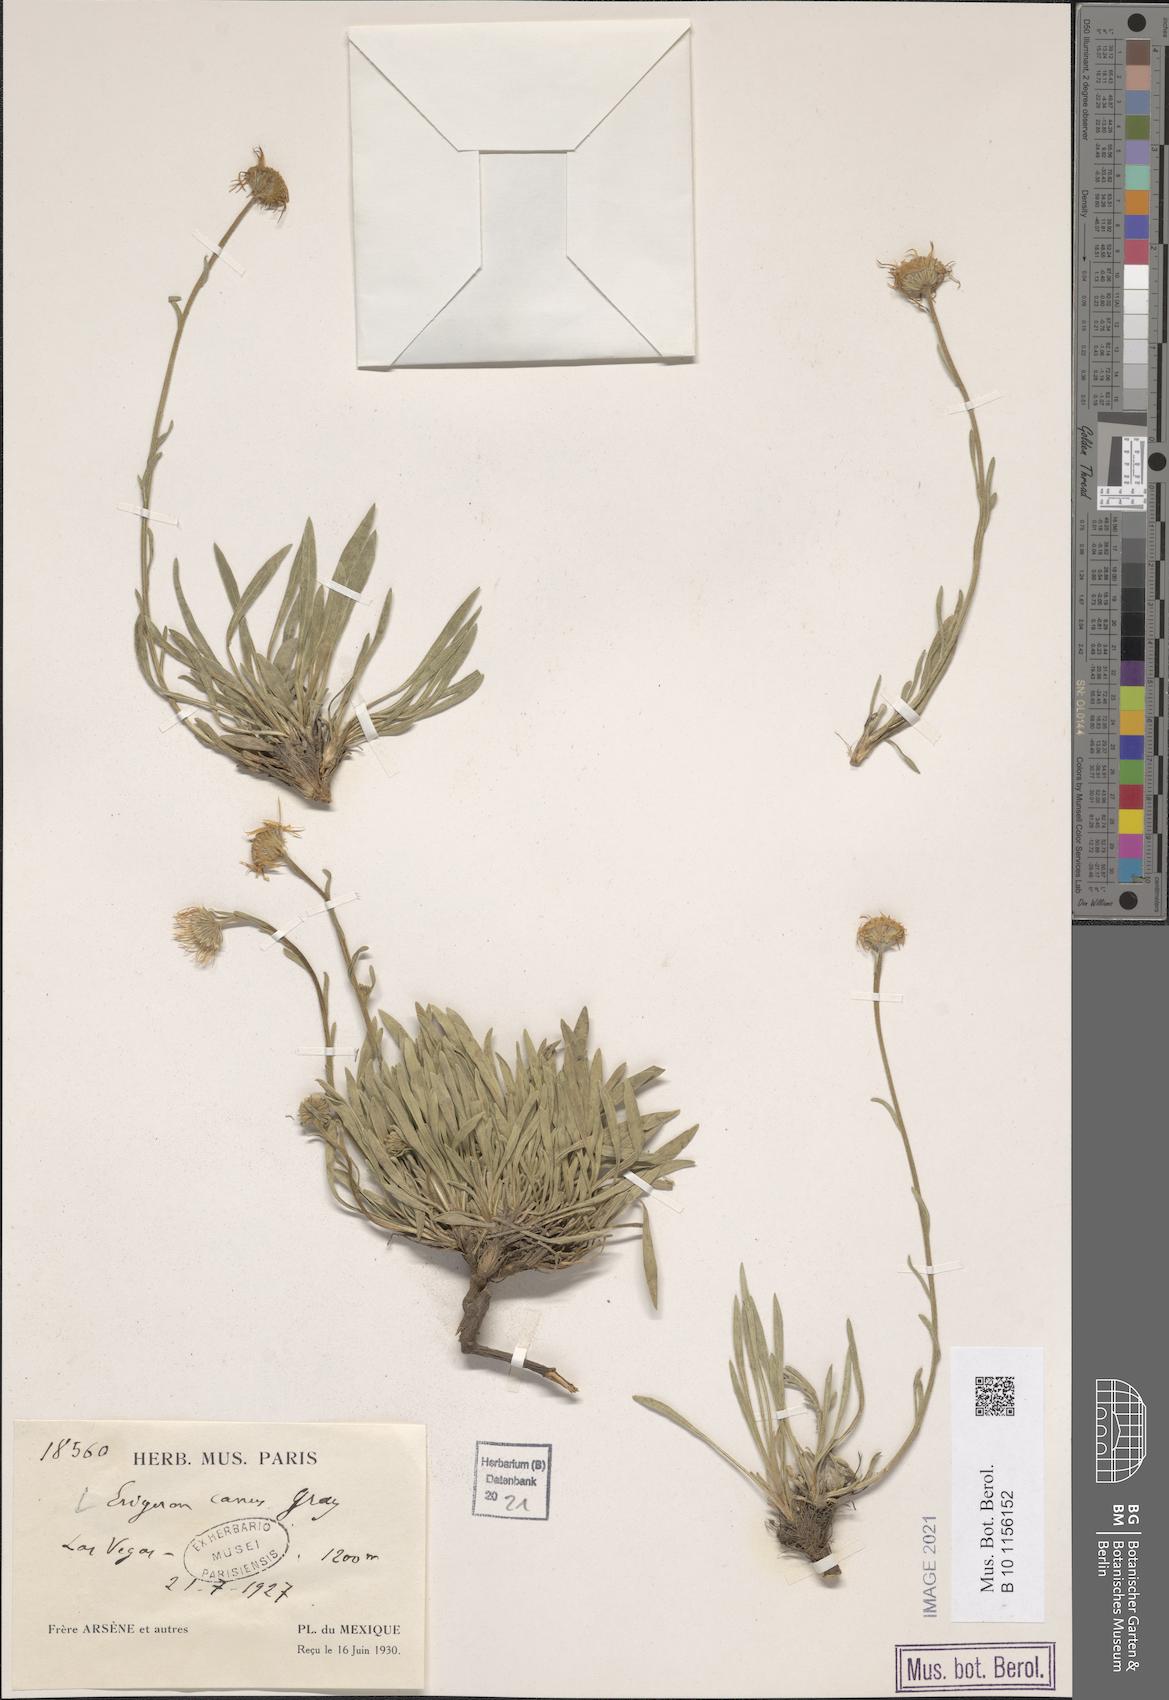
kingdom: Plantae
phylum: Tracheophyta
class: Magnoliopsida
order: Asterales
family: Asteraceae
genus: Erigeron
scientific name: Erigeron canus
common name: Hoary fleabane
